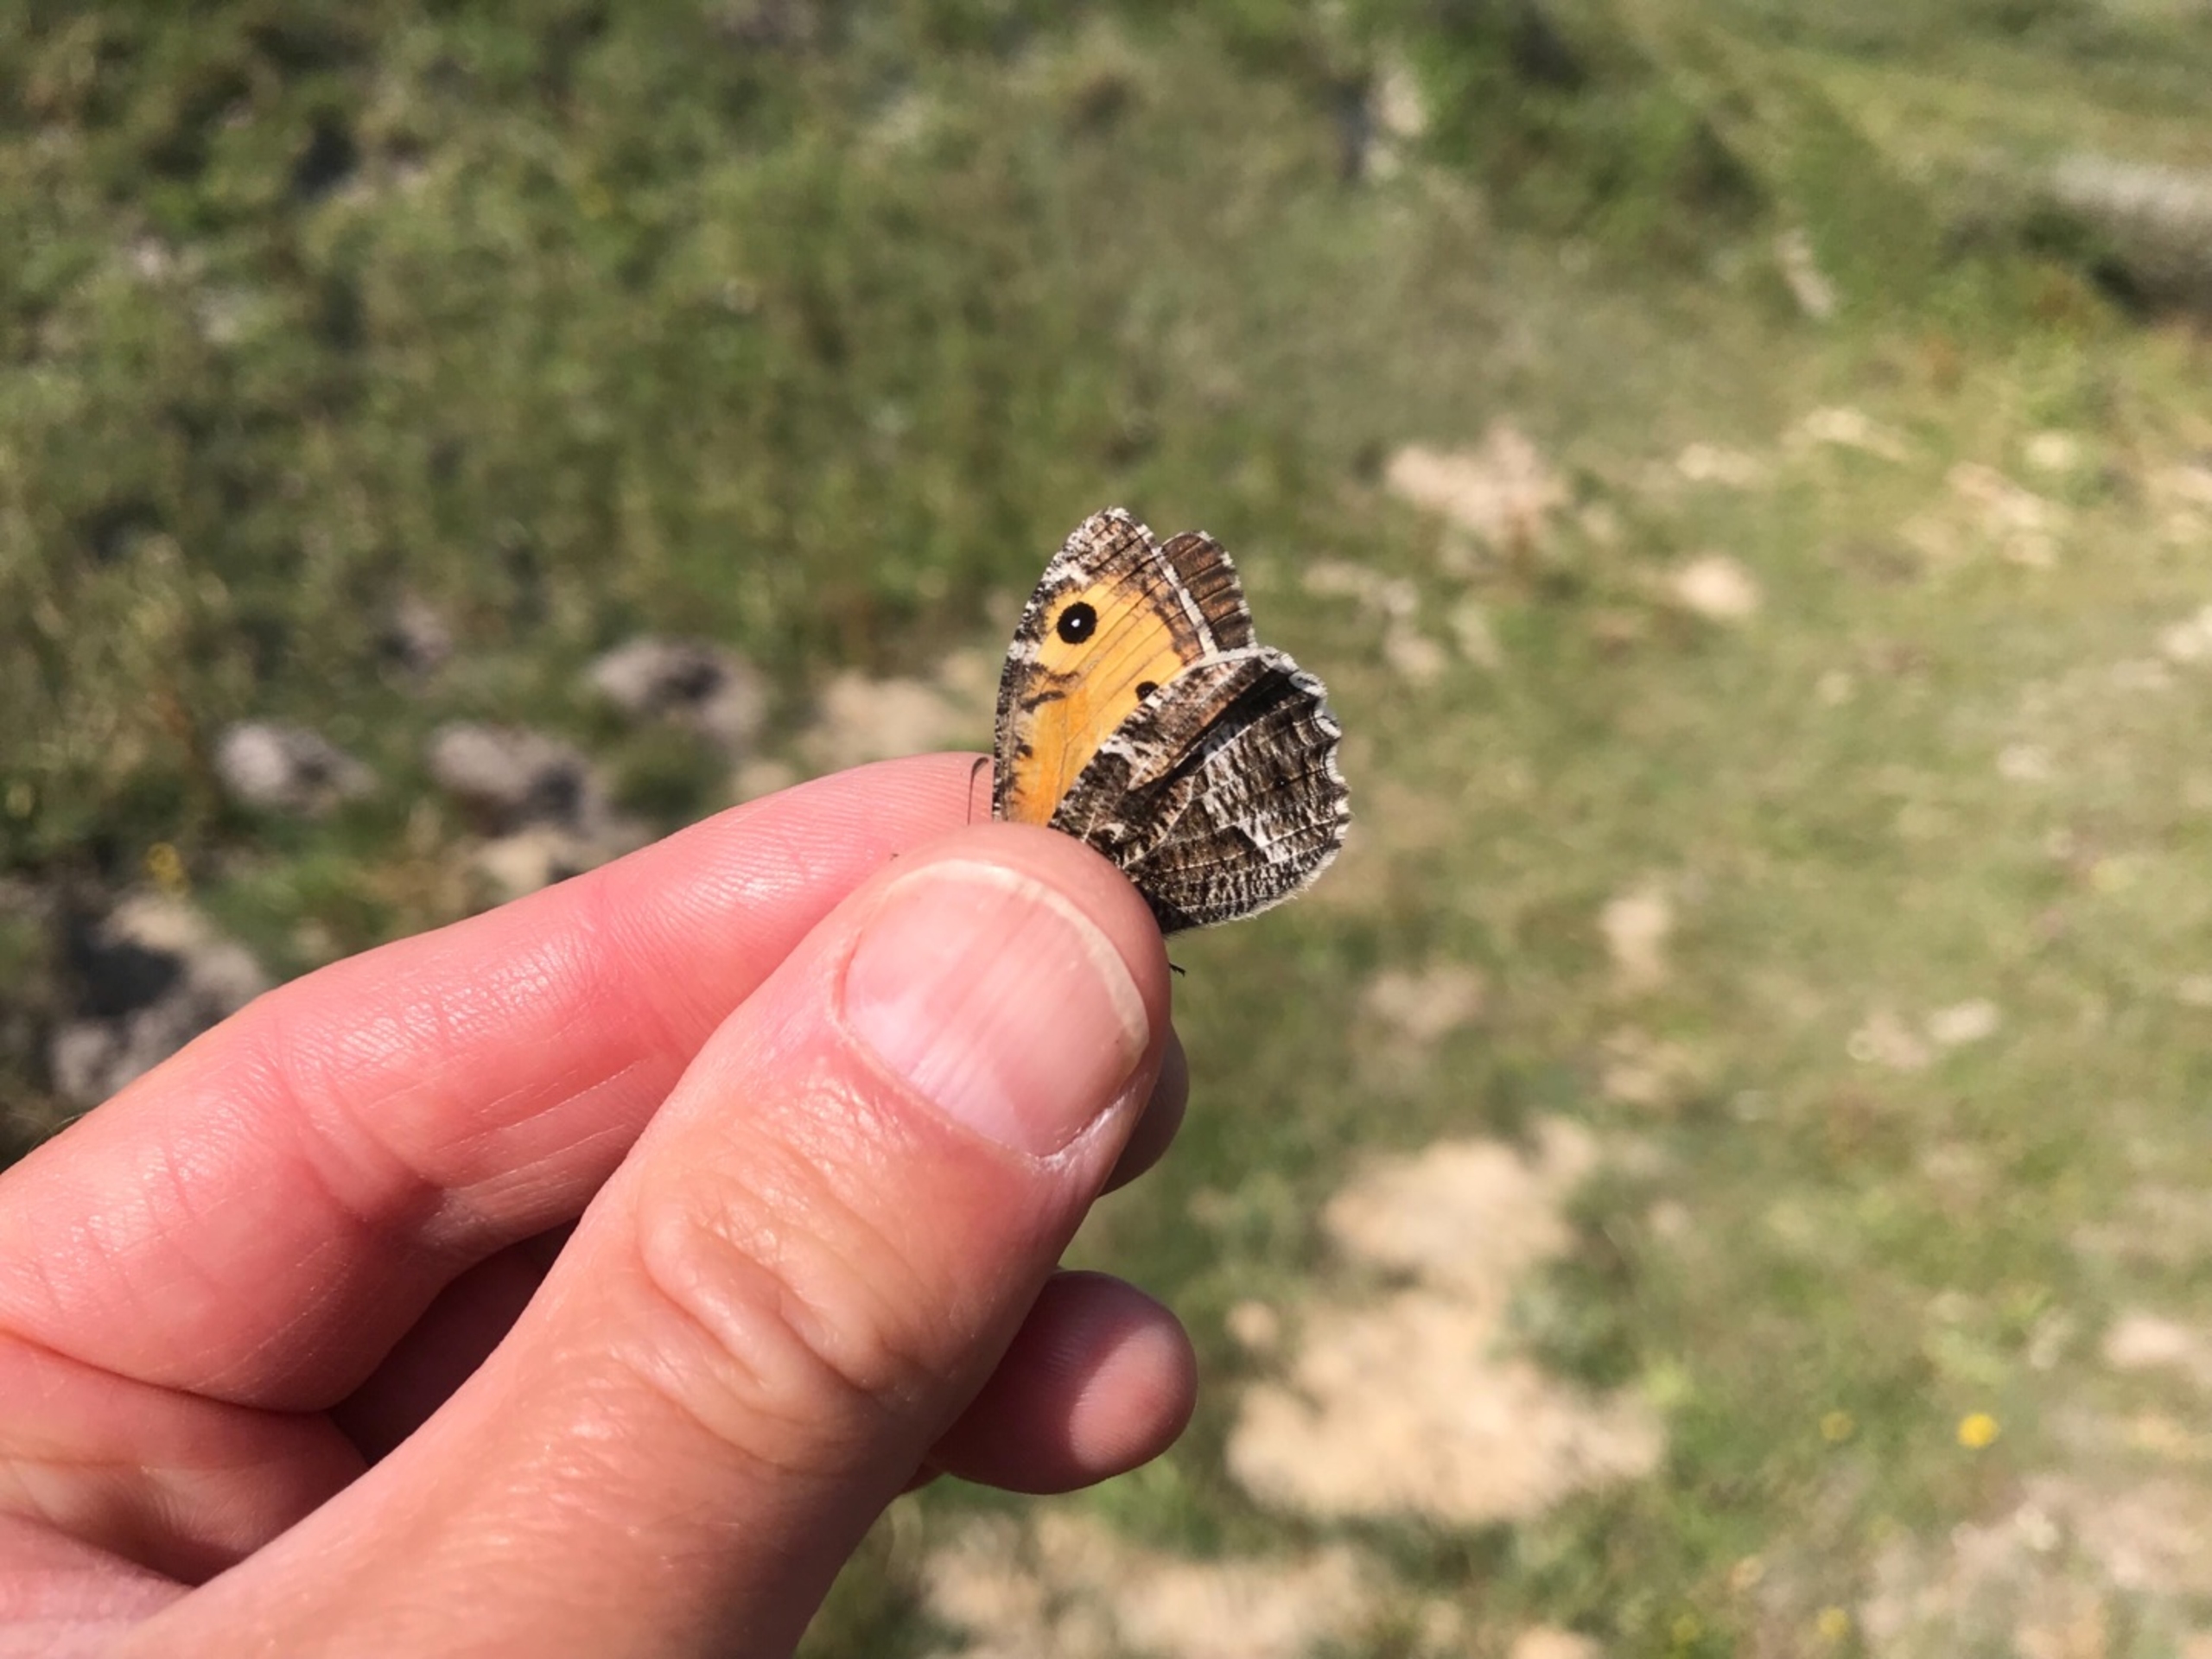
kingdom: Animalia
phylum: Arthropoda
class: Insecta
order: Lepidoptera
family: Nymphalidae
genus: Hipparchia
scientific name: Hipparchia semele
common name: Sandrandøje
